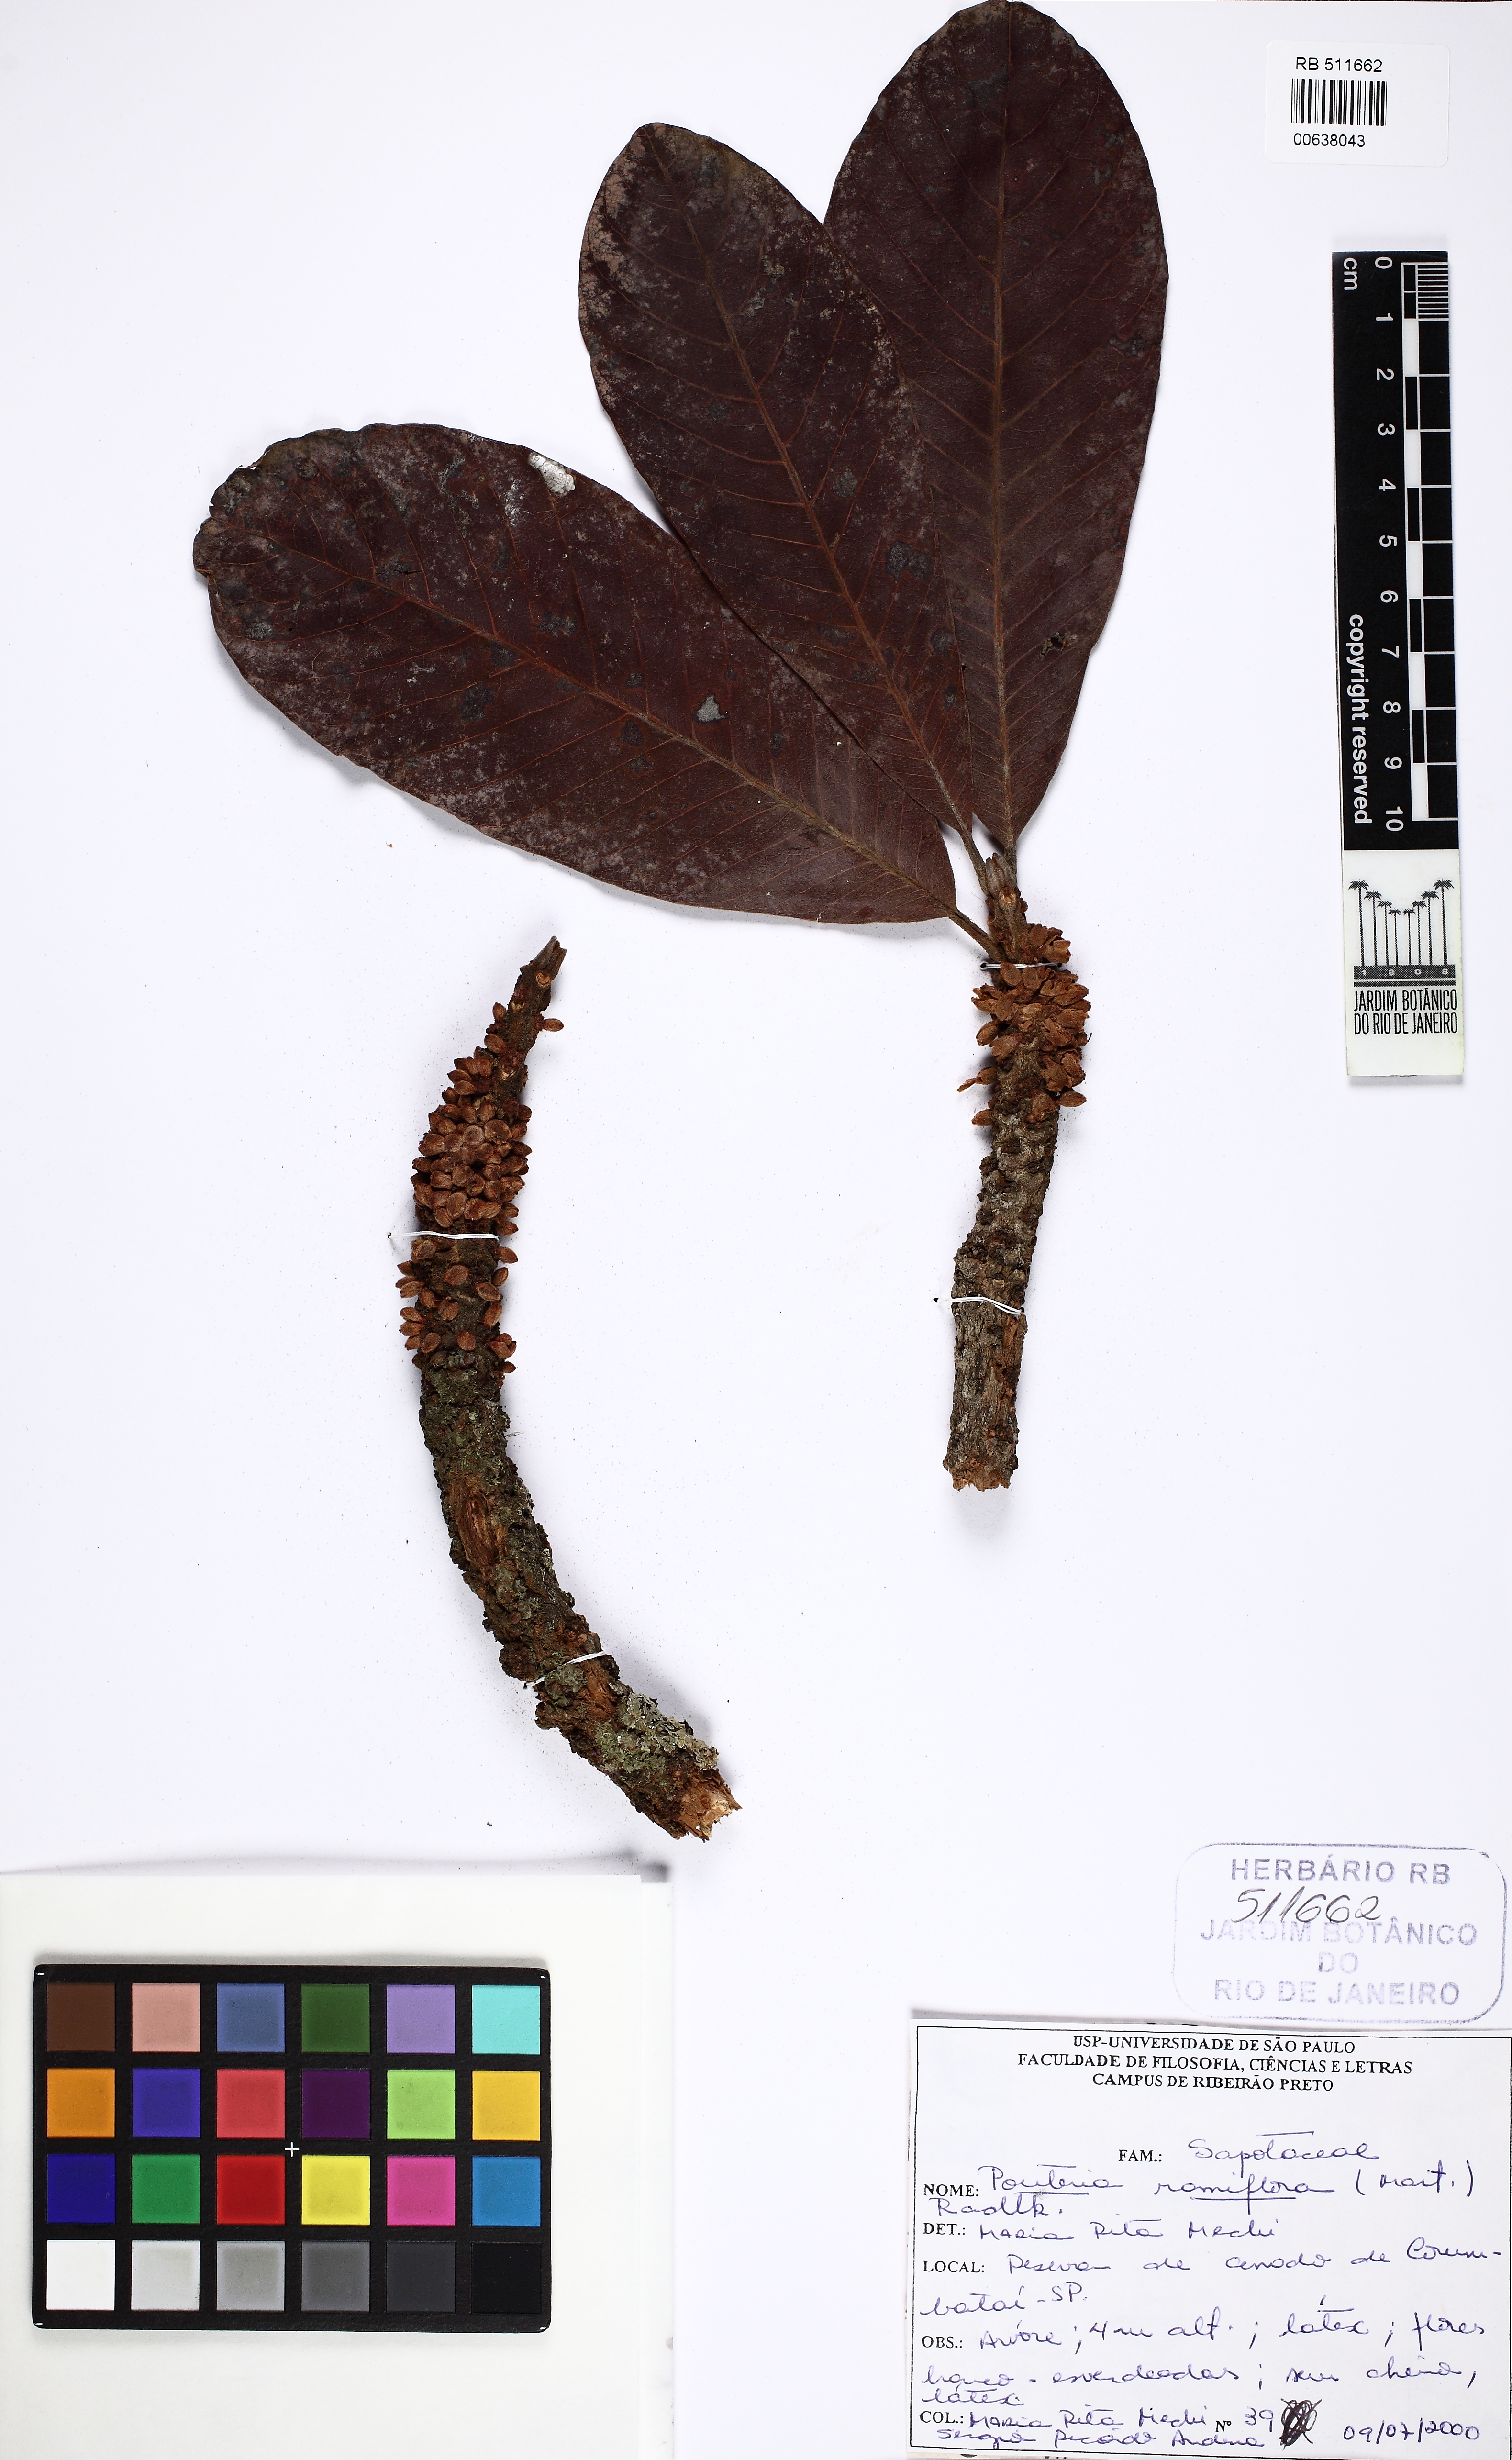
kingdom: Plantae
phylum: Tracheophyta
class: Magnoliopsida
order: Ericales
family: Sapotaceae
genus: Pouteria
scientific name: Pouteria torta
